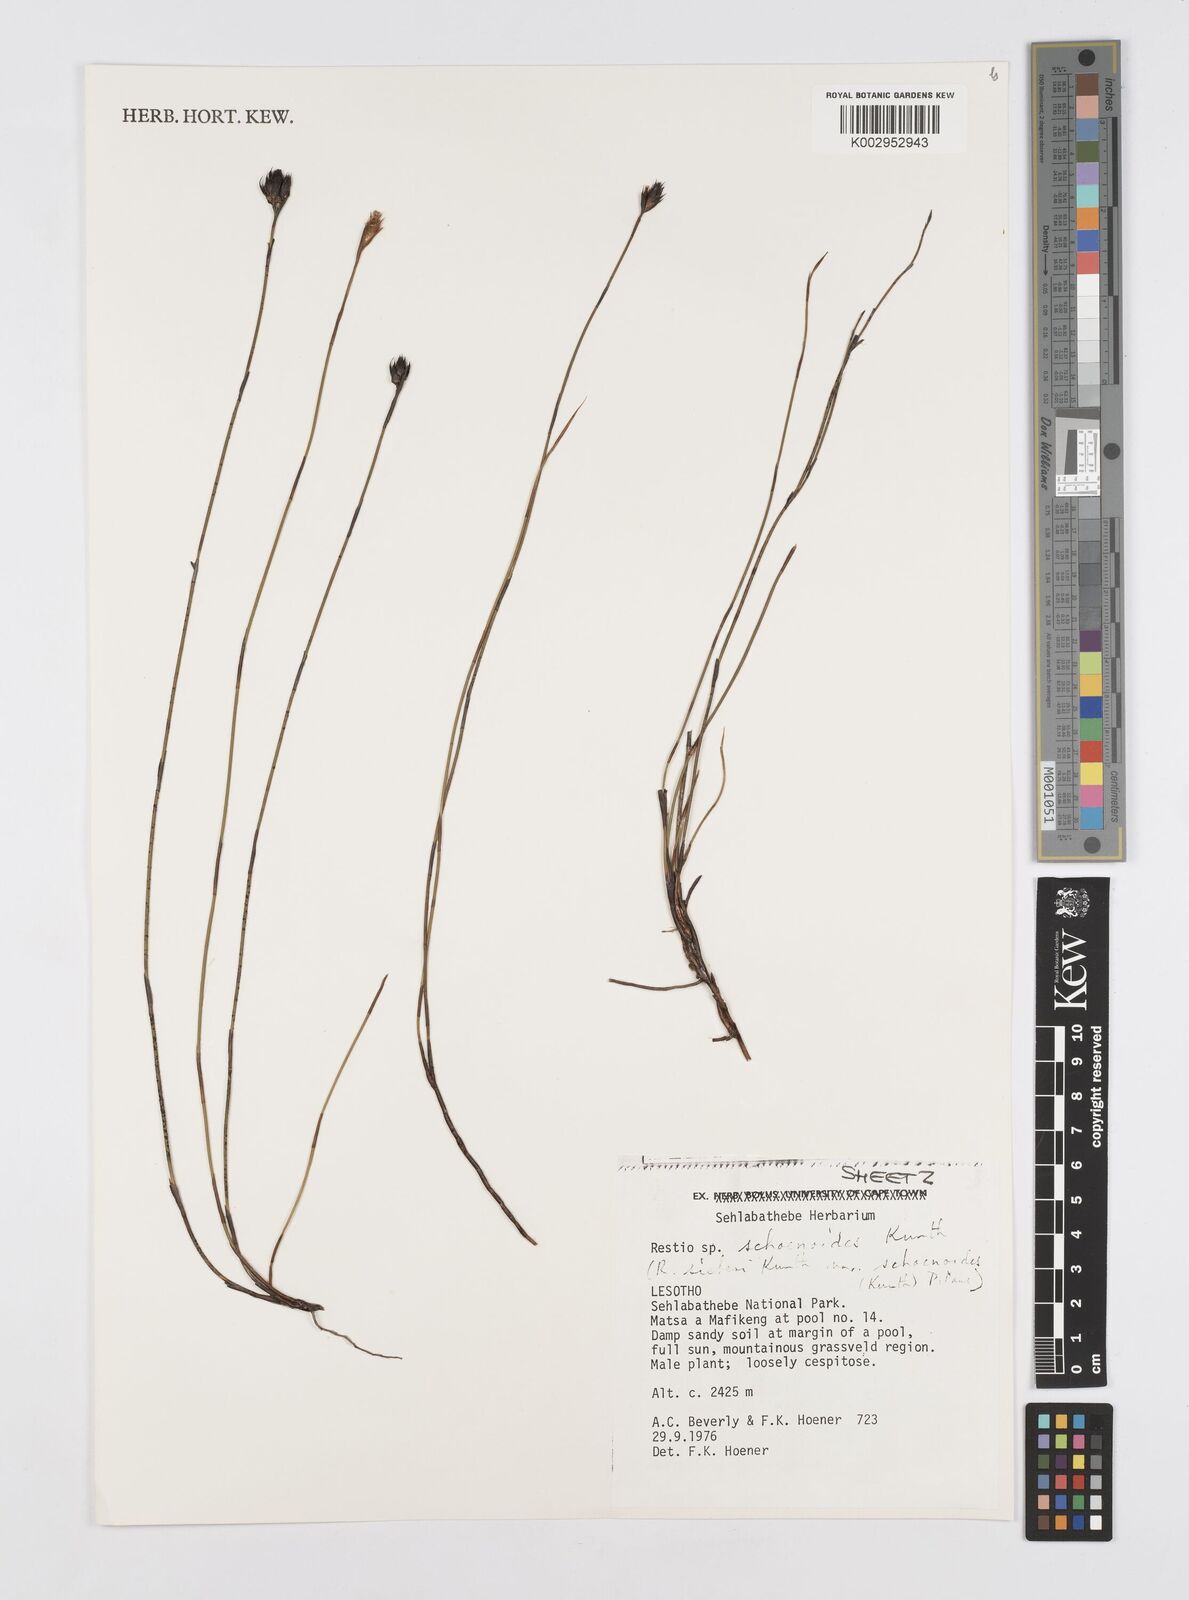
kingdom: Plantae
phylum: Tracheophyta
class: Liliopsida
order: Poales
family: Restionaceae
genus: Restio
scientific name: Restio schoenoides
